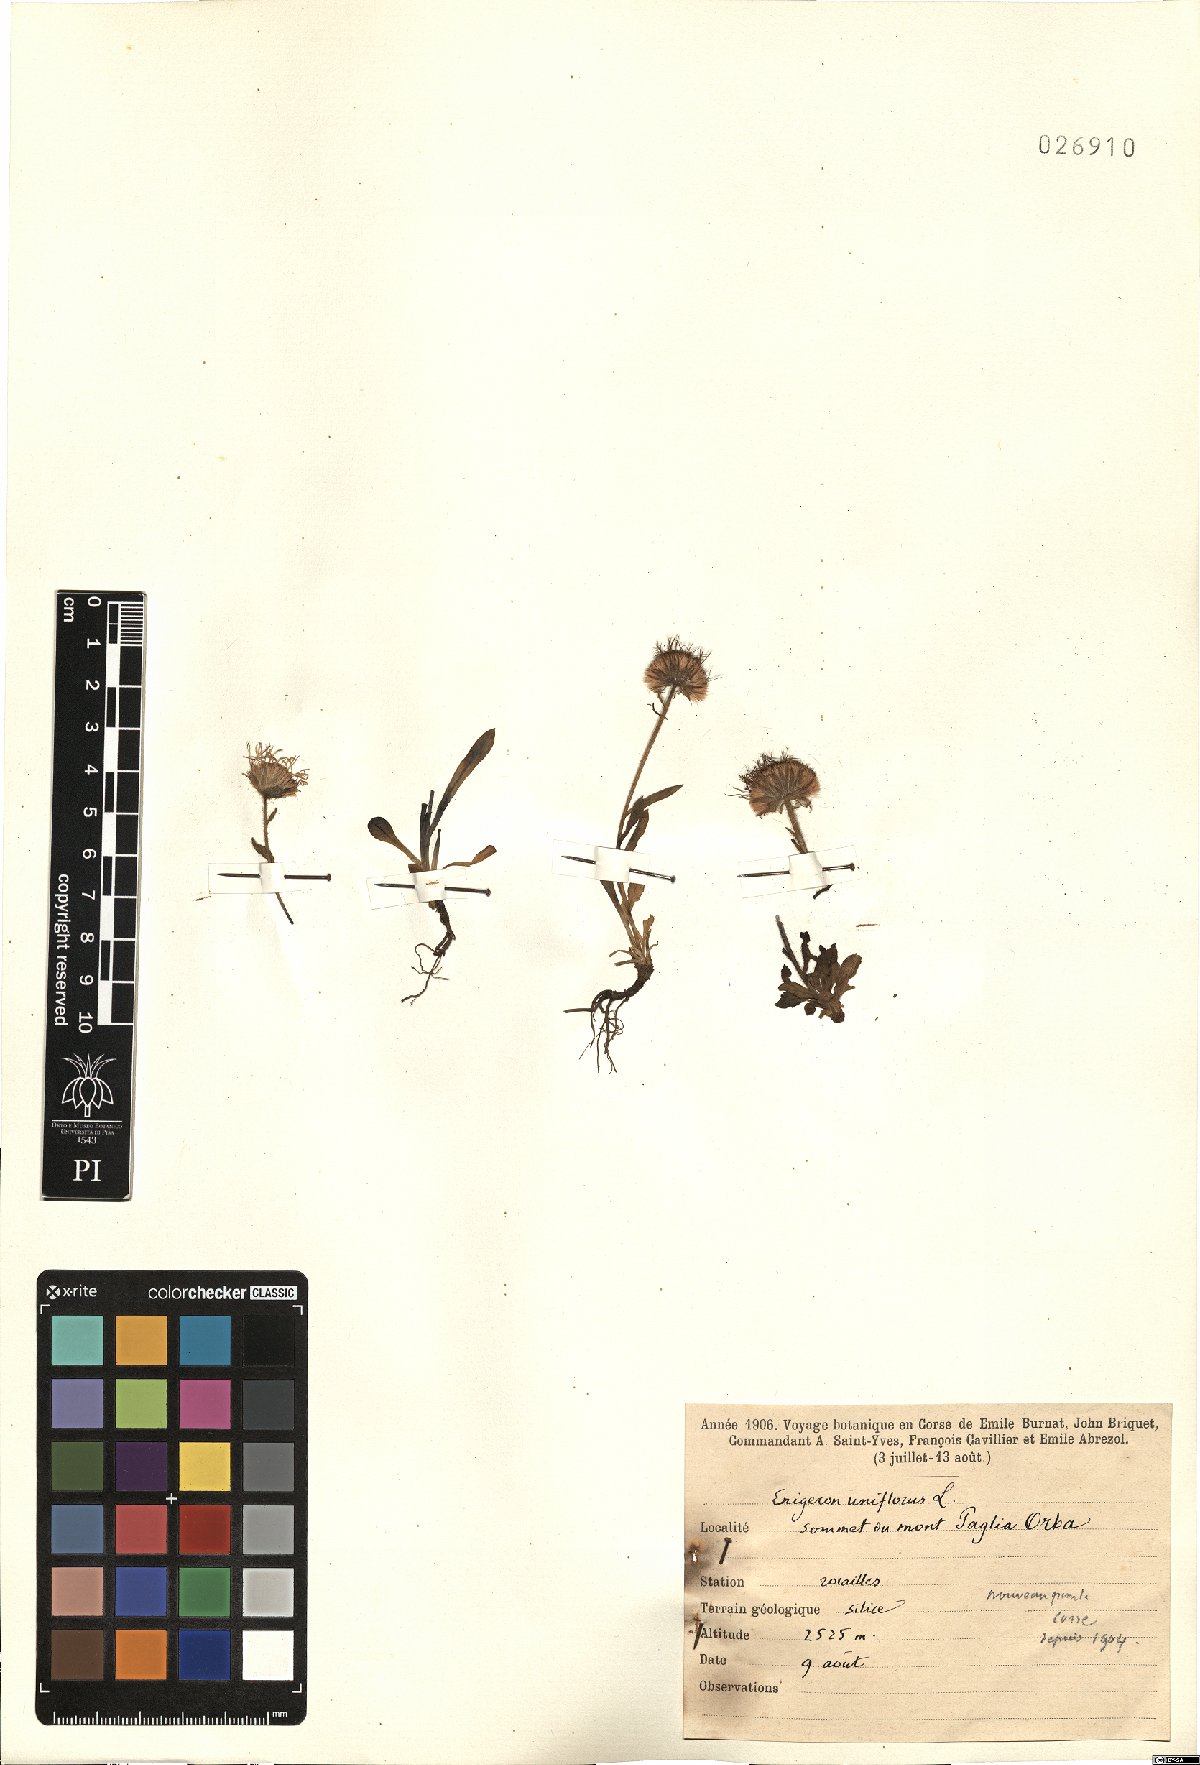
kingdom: Plantae
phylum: Tracheophyta
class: Magnoliopsida
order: Asterales
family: Asteraceae
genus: Erigeron
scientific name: Erigeron uniflorus
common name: Northern daisy
